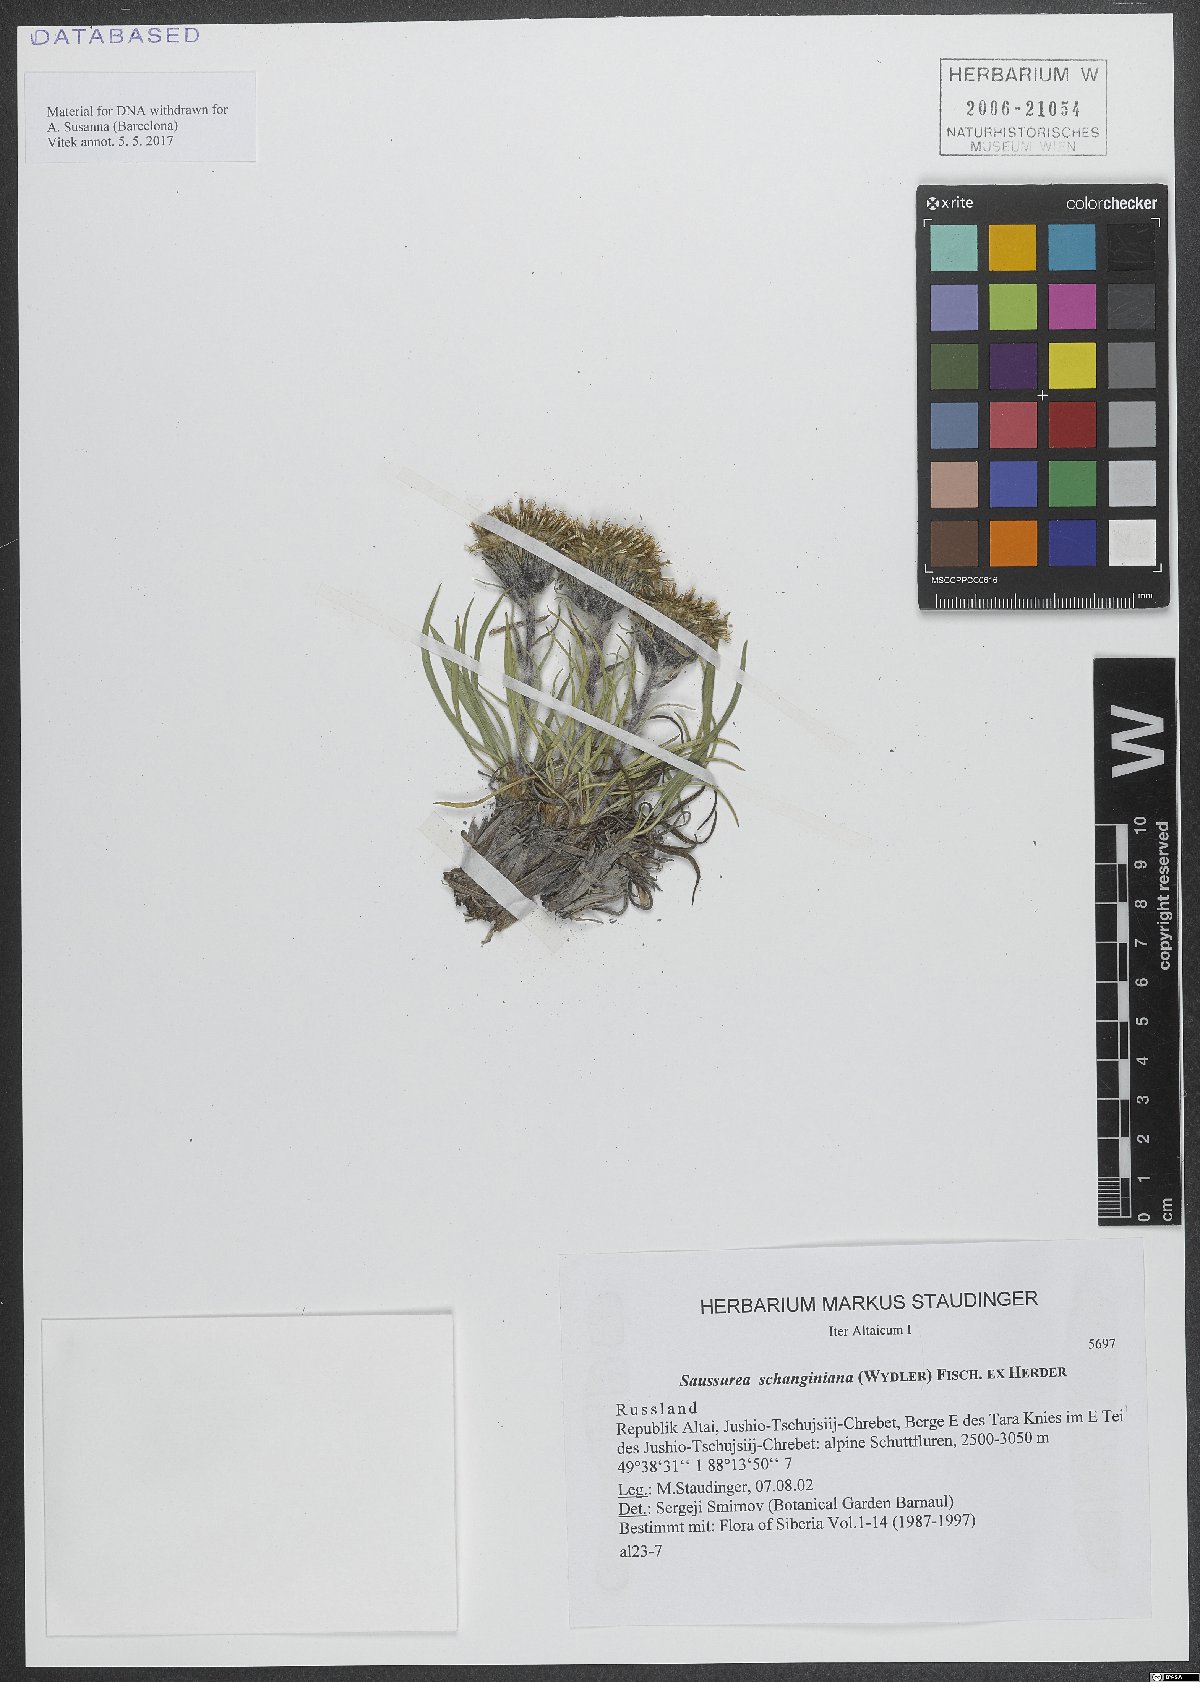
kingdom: Plantae
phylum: Tracheophyta
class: Magnoliopsida
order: Asterales
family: Asteraceae
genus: Saussurea
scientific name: Saussurea schanginiana
